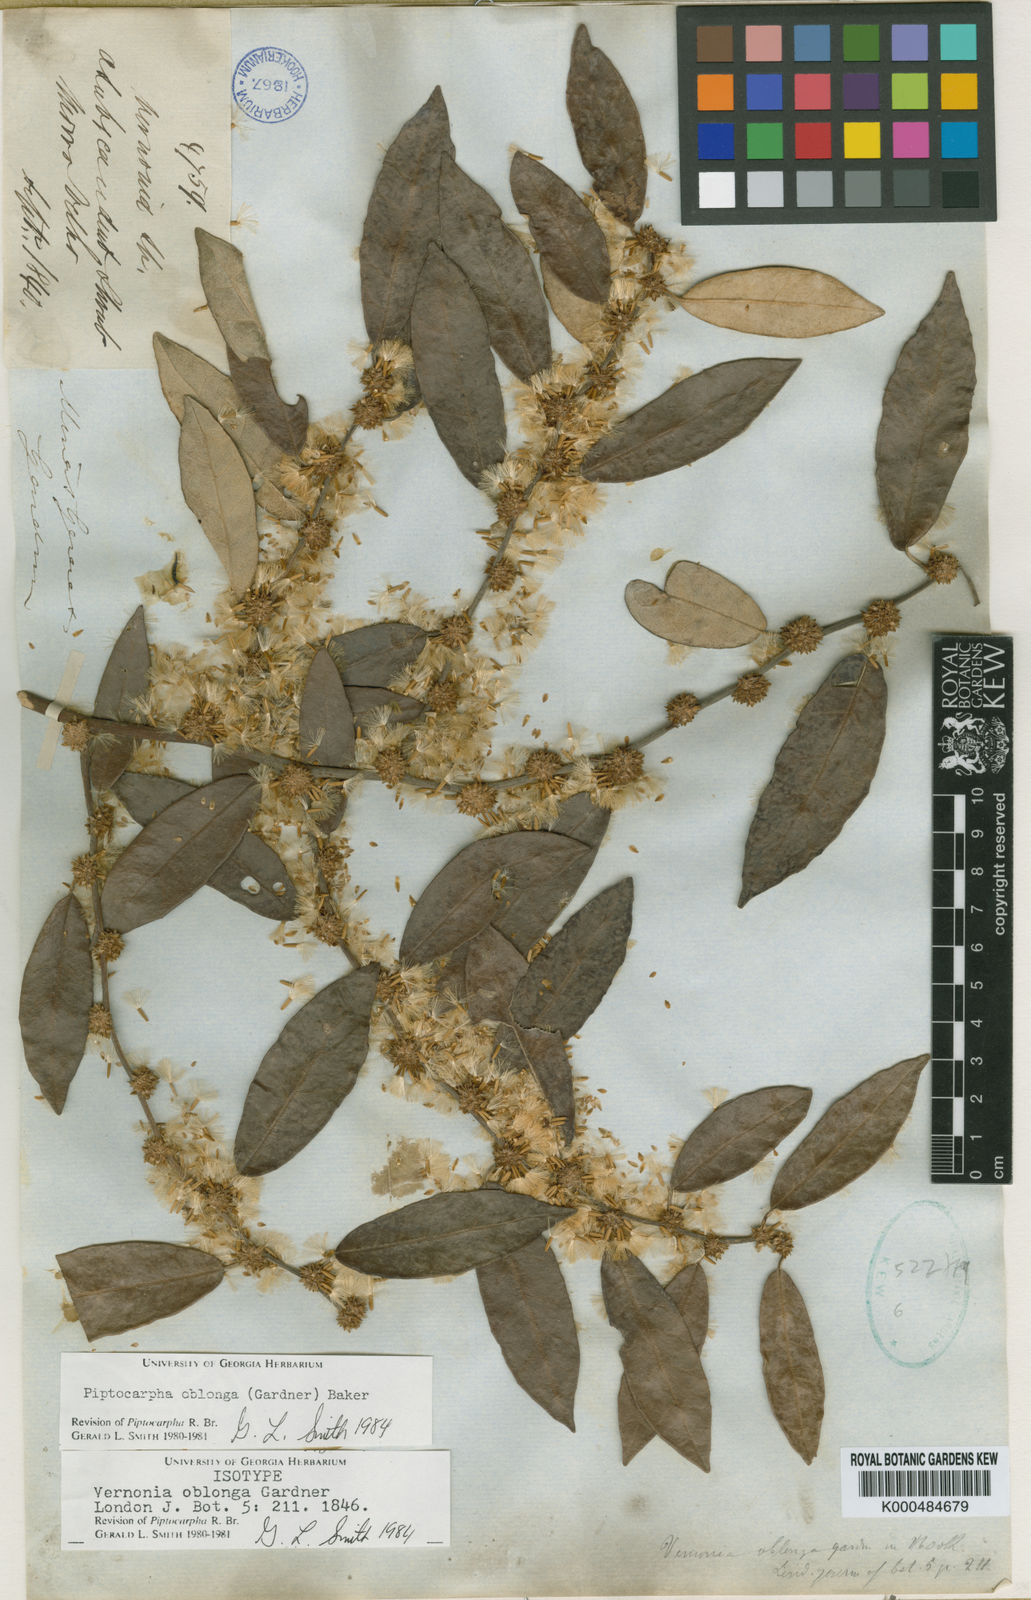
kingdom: Plantae
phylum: Tracheophyta
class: Magnoliopsida
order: Asterales
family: Asteraceae
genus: Piptocarpha
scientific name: Piptocarpha oblonga
